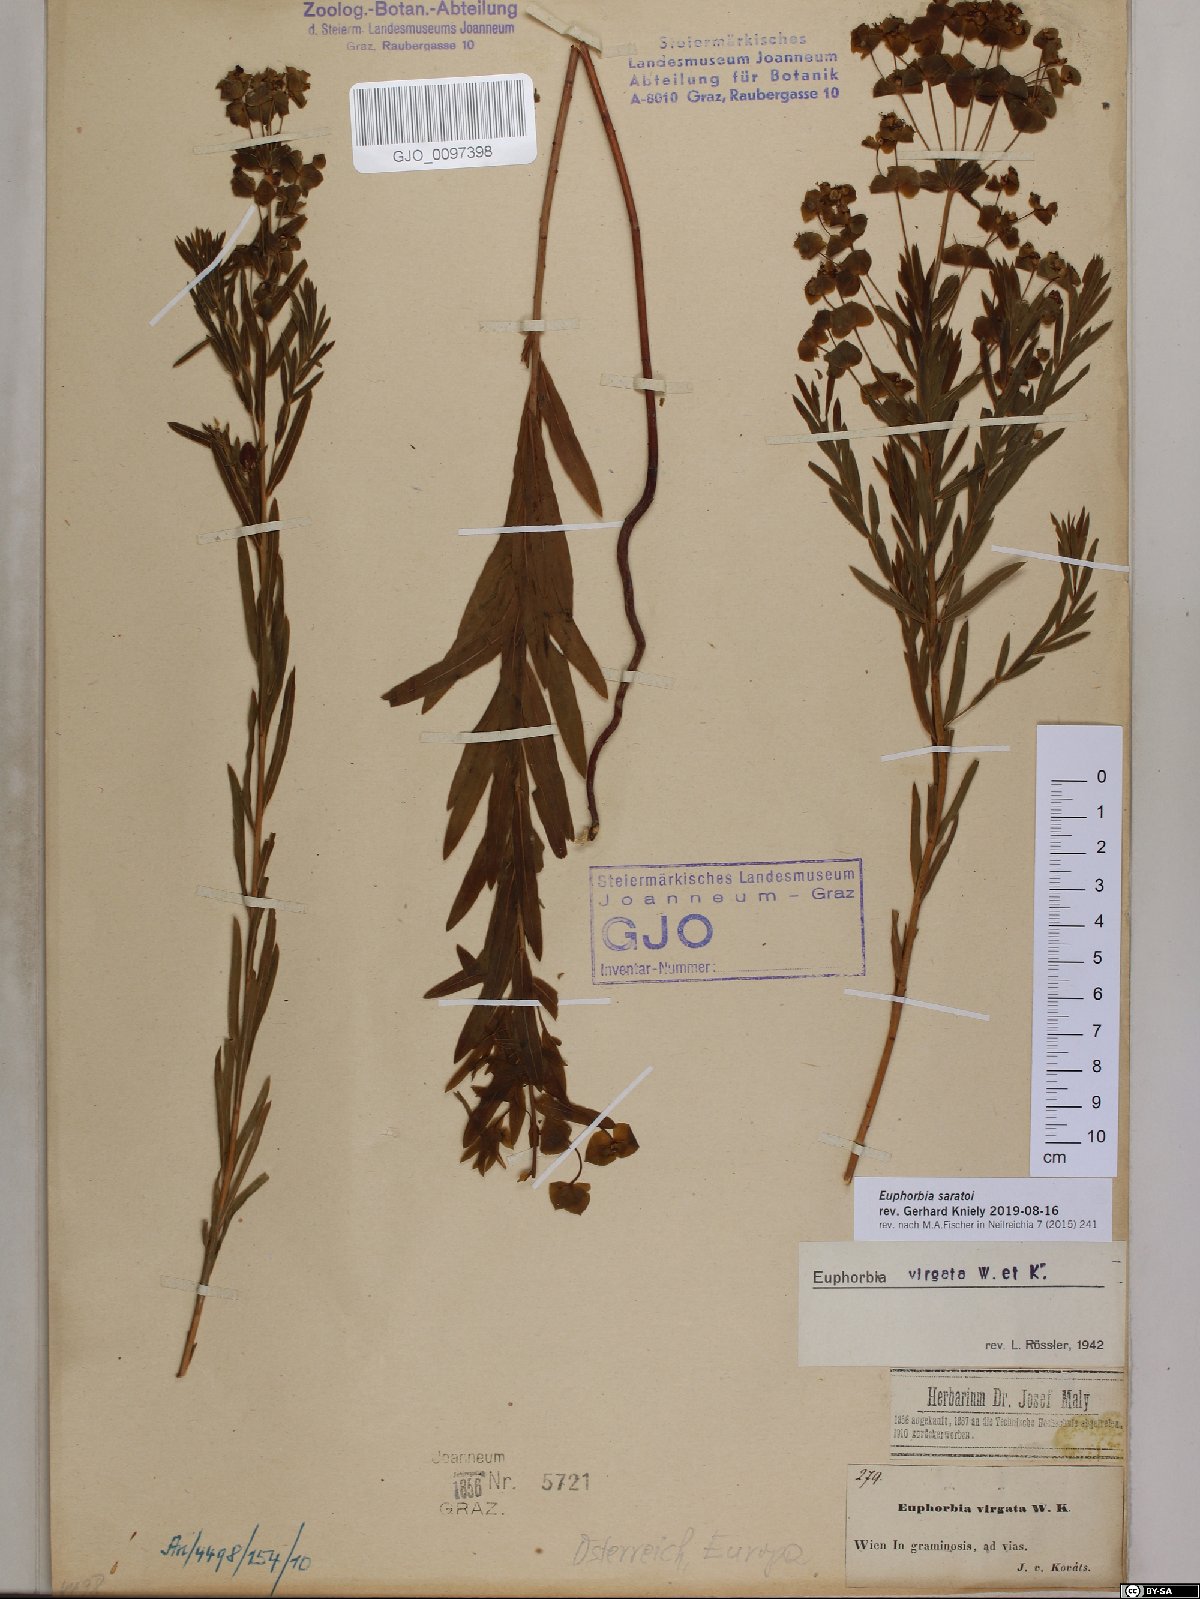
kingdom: Plantae
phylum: Tracheophyta
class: Magnoliopsida
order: Malpighiales
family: Euphorbiaceae
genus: Euphorbia
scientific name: Euphorbia saratoi
